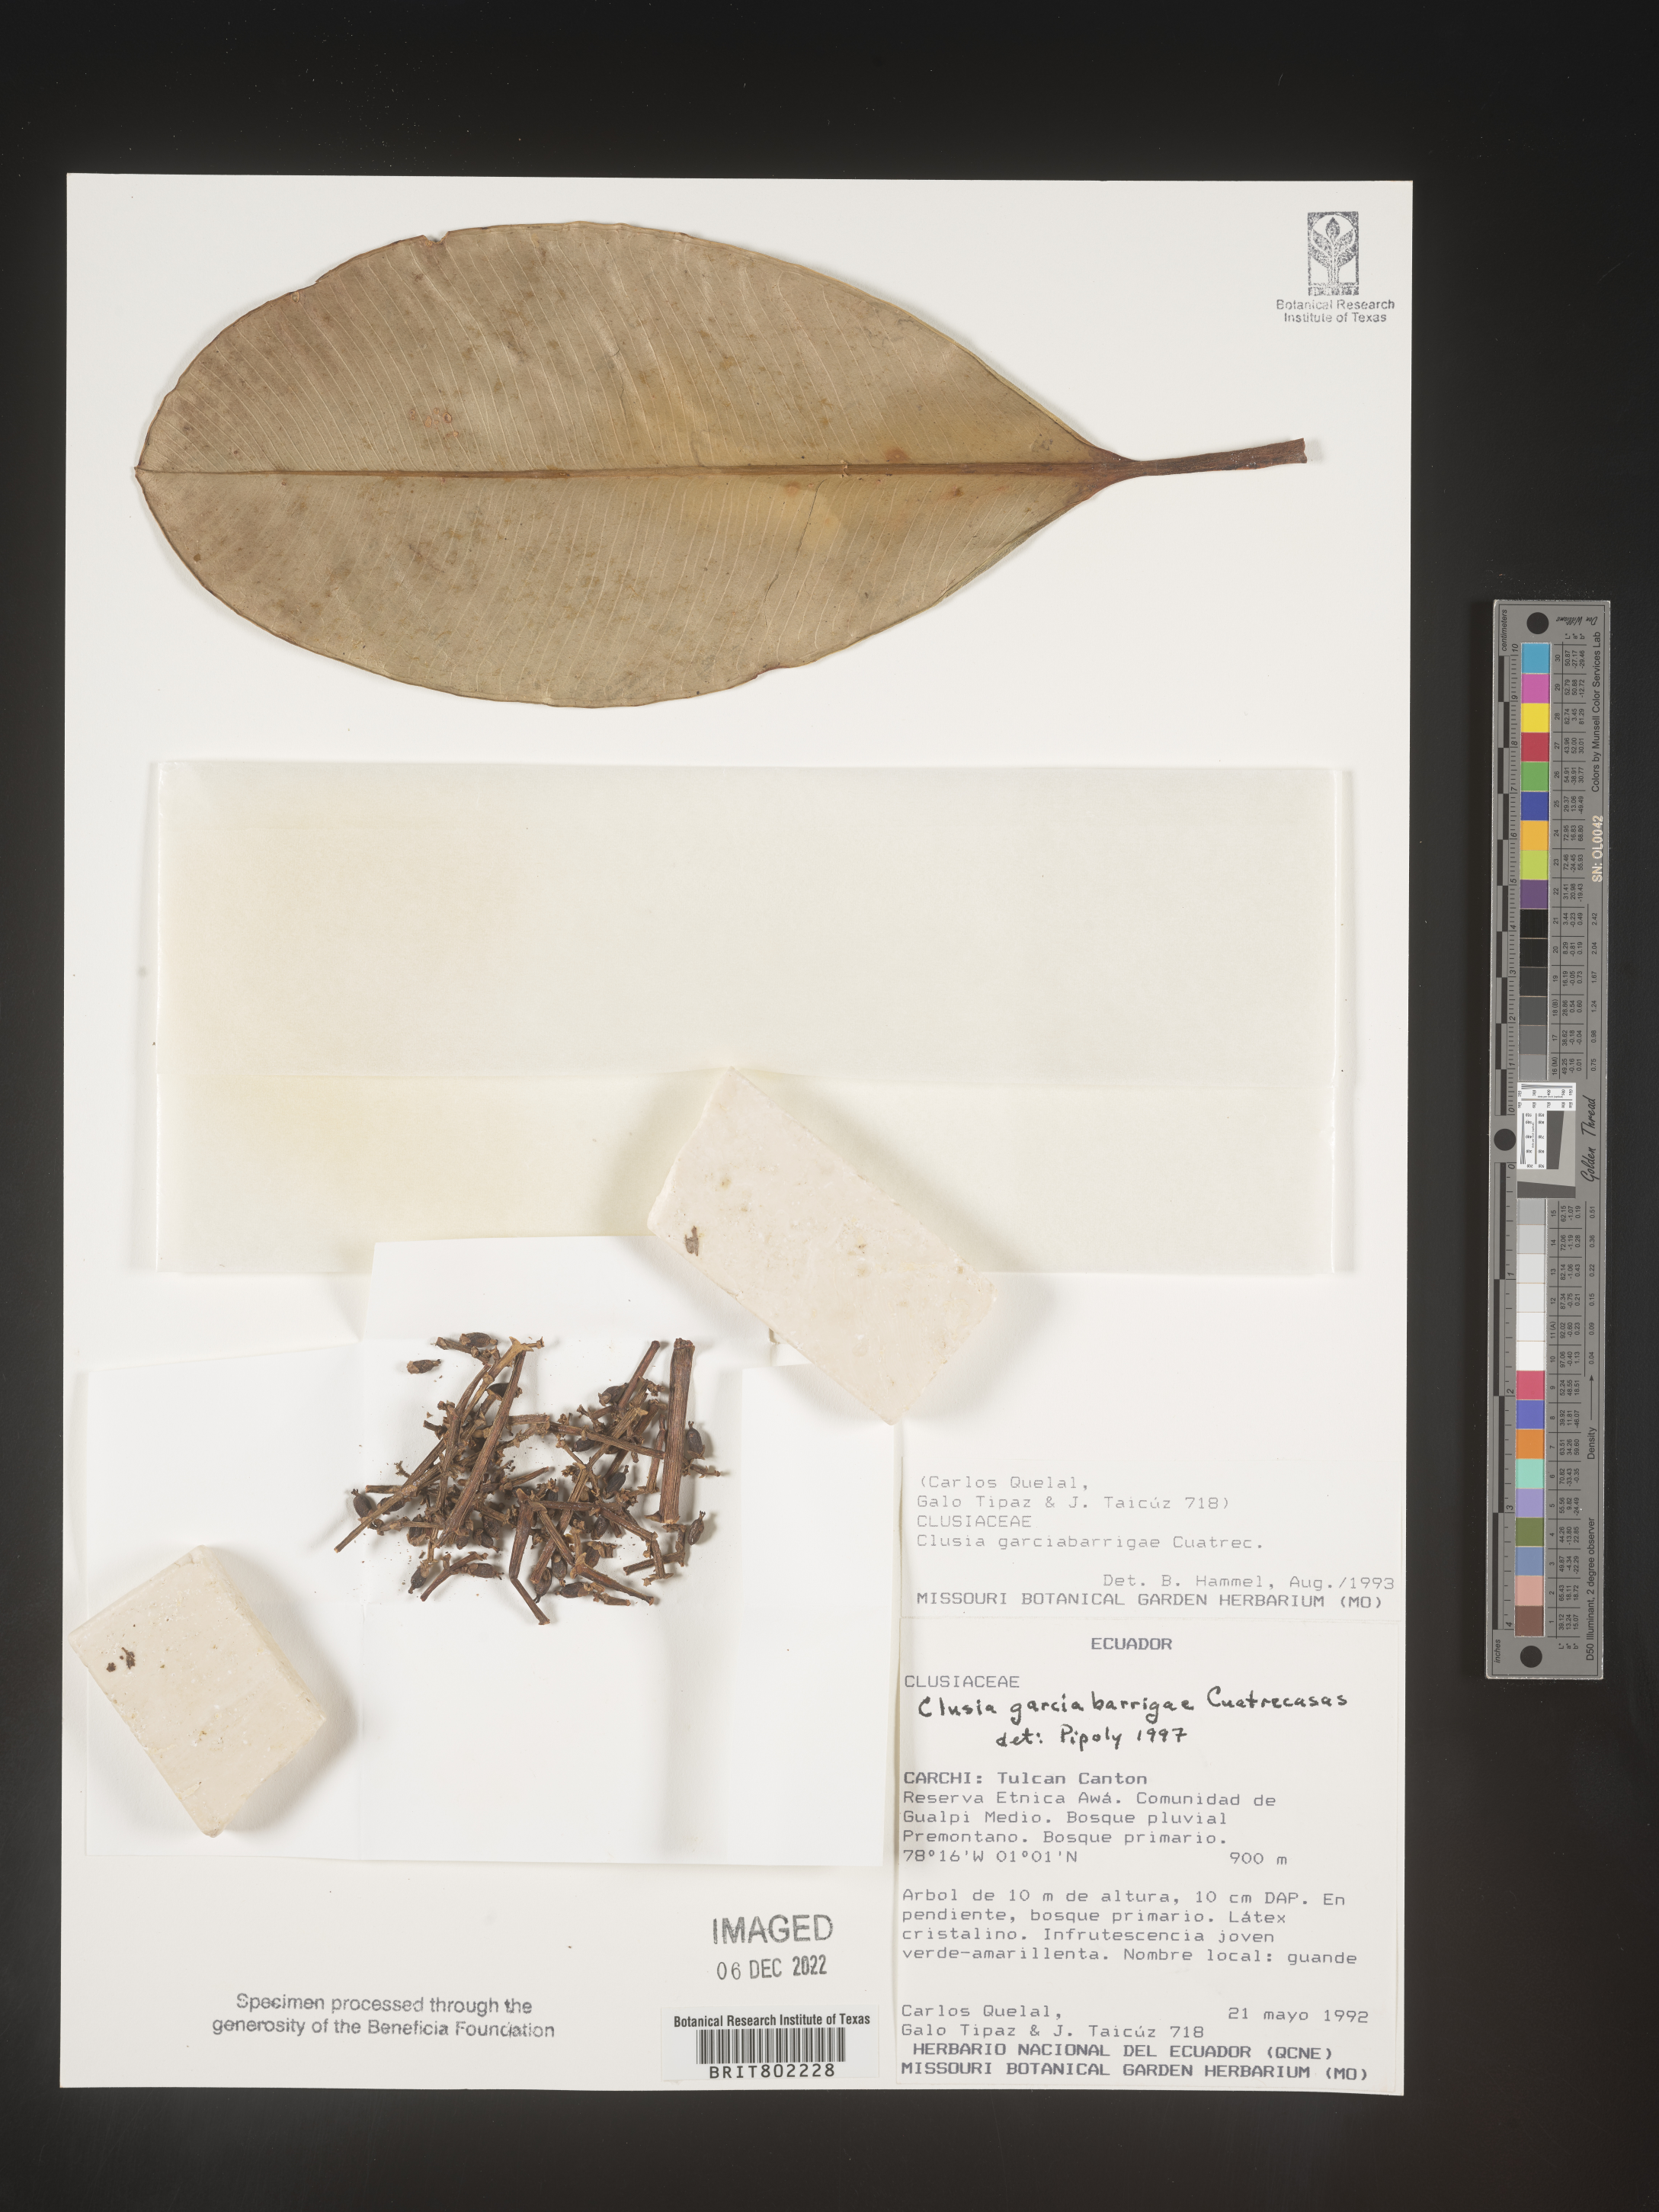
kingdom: Plantae
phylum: Tracheophyta
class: Magnoliopsida
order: Malpighiales
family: Clusiaceae
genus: Clusia
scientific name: Clusia garcibarrigae
